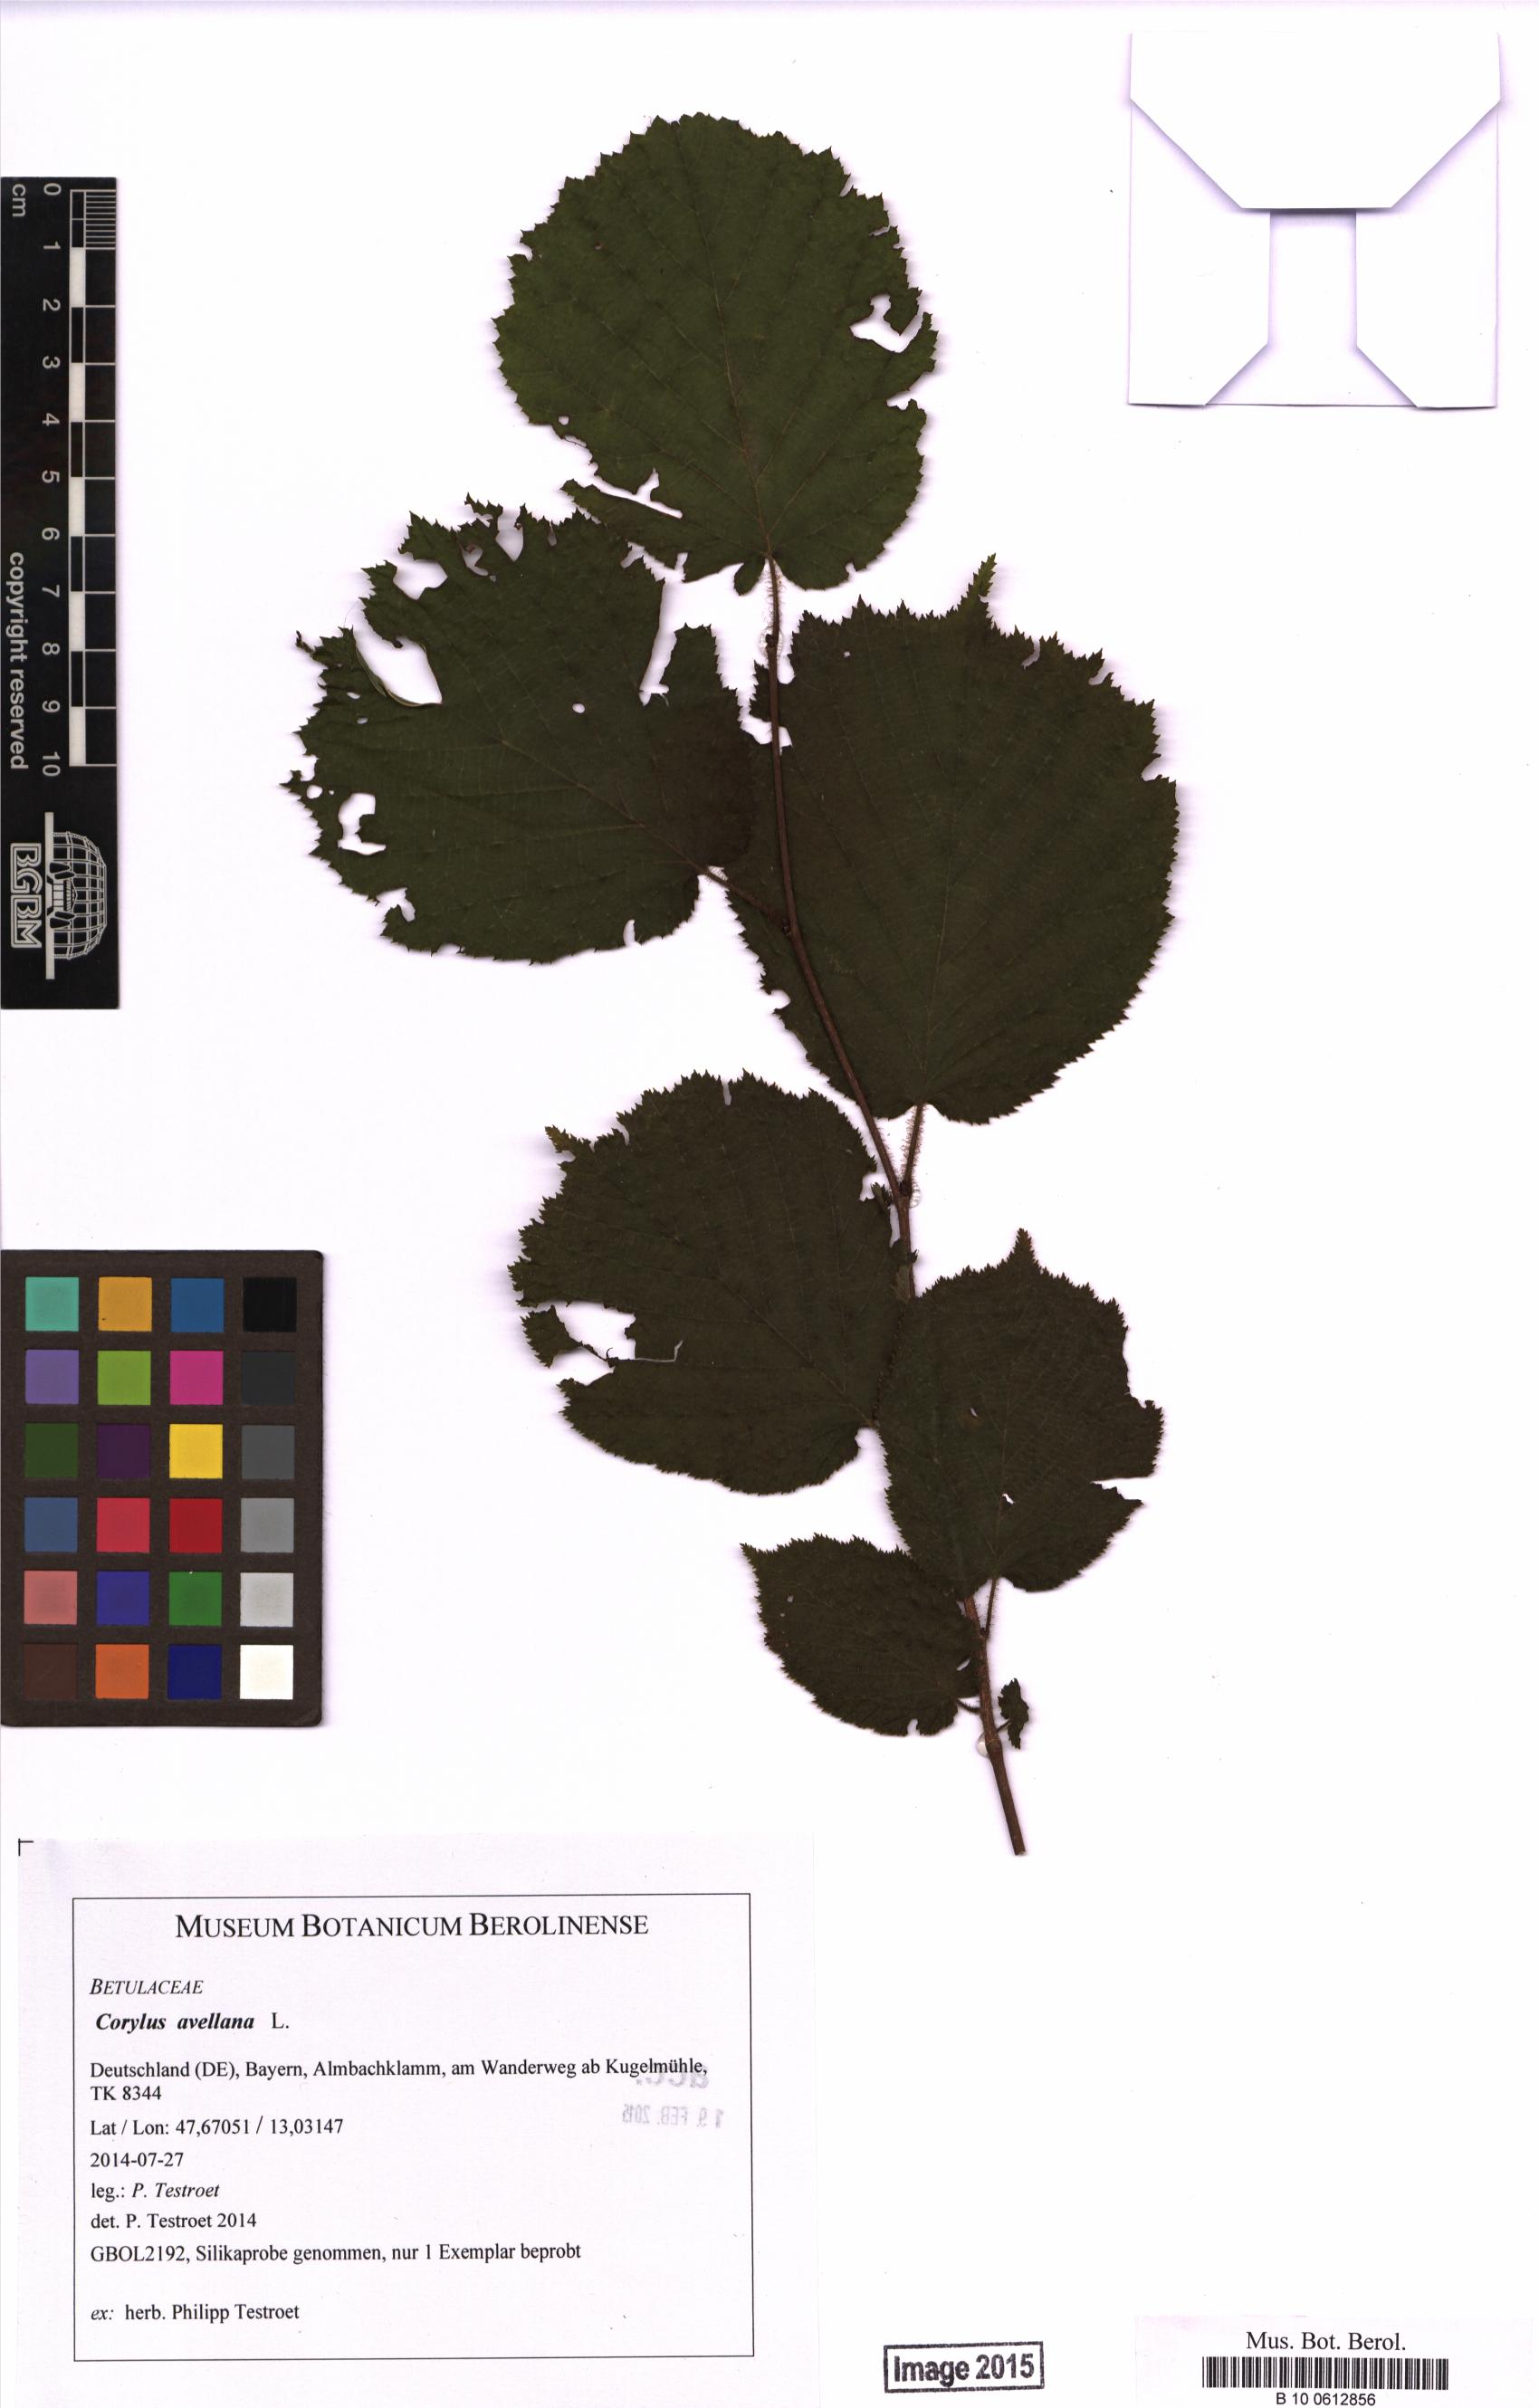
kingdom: Plantae
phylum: Tracheophyta
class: Magnoliopsida
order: Fagales
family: Betulaceae
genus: Corylus
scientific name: Corylus avellana
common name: European hazel
